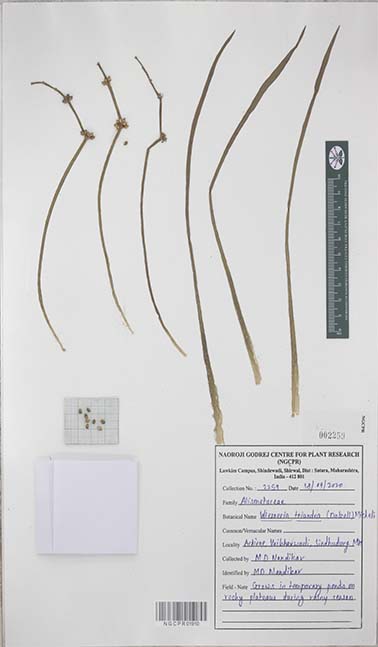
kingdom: Plantae
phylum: Tracheophyta
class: Liliopsida
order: Alismatales
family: Alismataceae
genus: Wiesneria
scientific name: Wiesneria triandra
